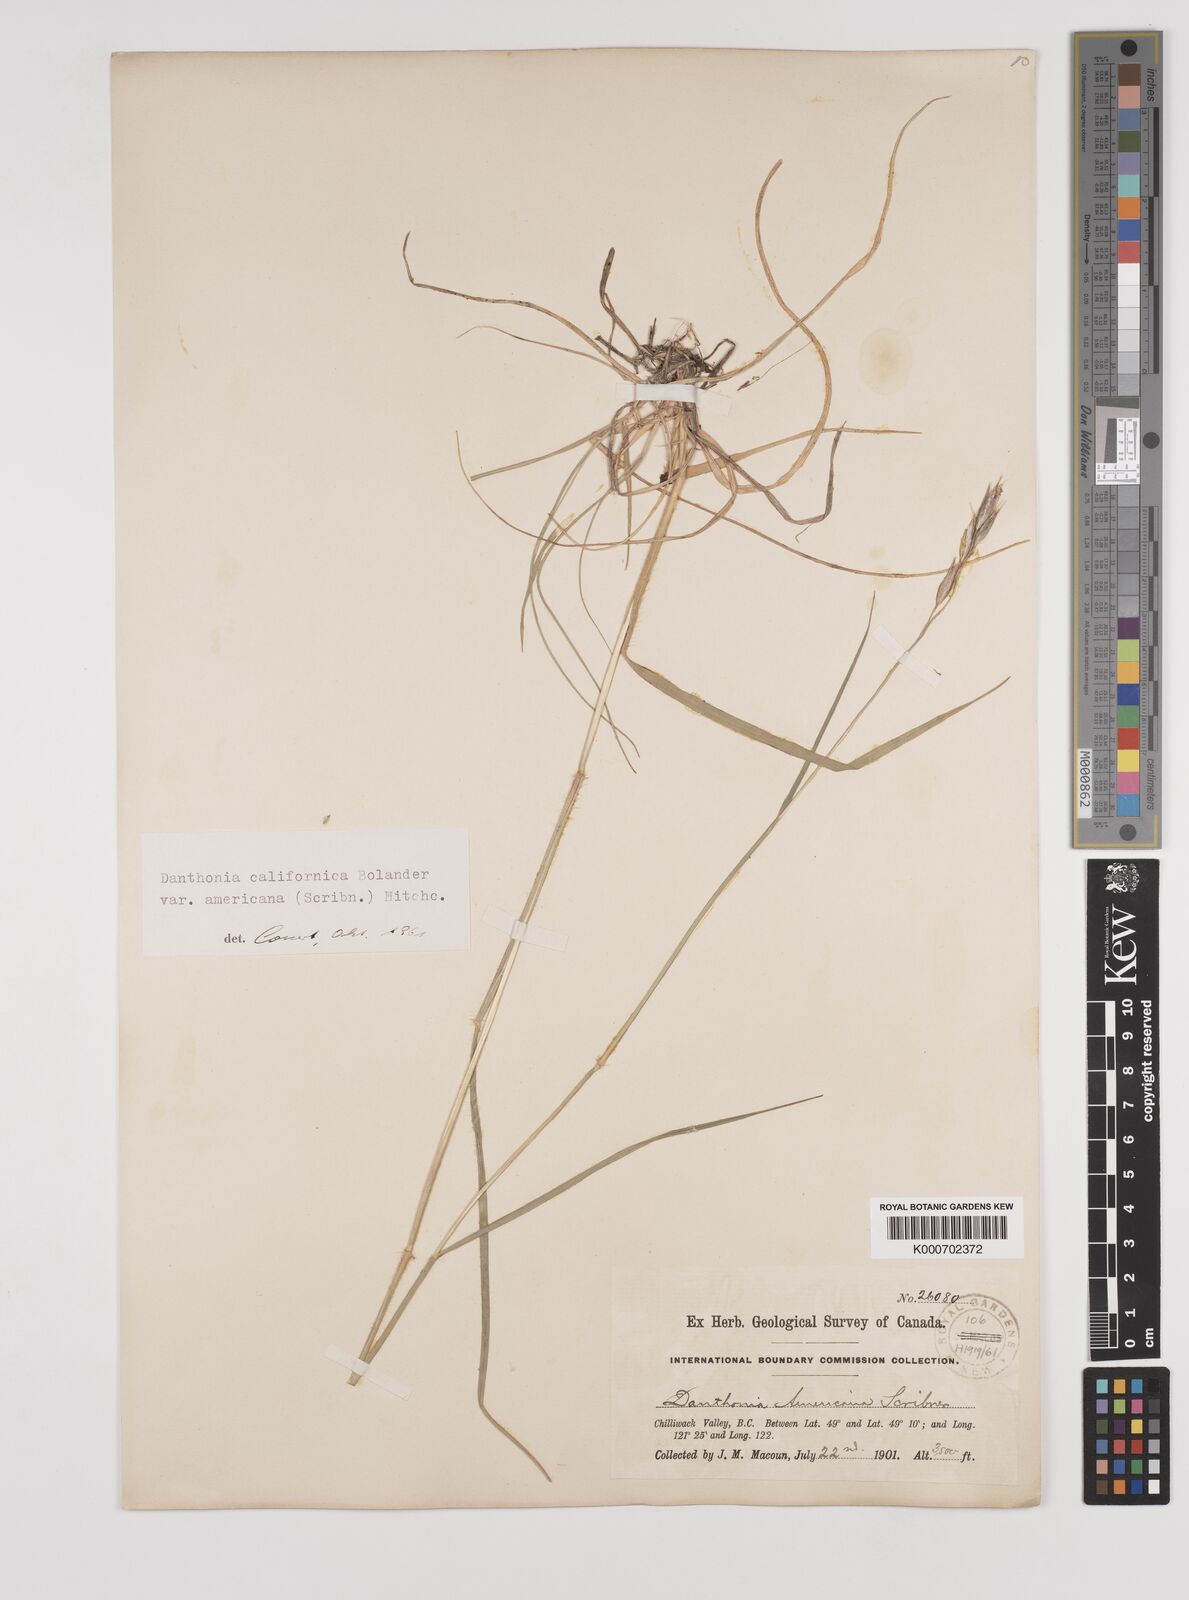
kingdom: Plantae
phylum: Tracheophyta
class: Liliopsida
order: Poales
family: Poaceae
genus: Danthonia
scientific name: Danthonia californica
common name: California oat grass
